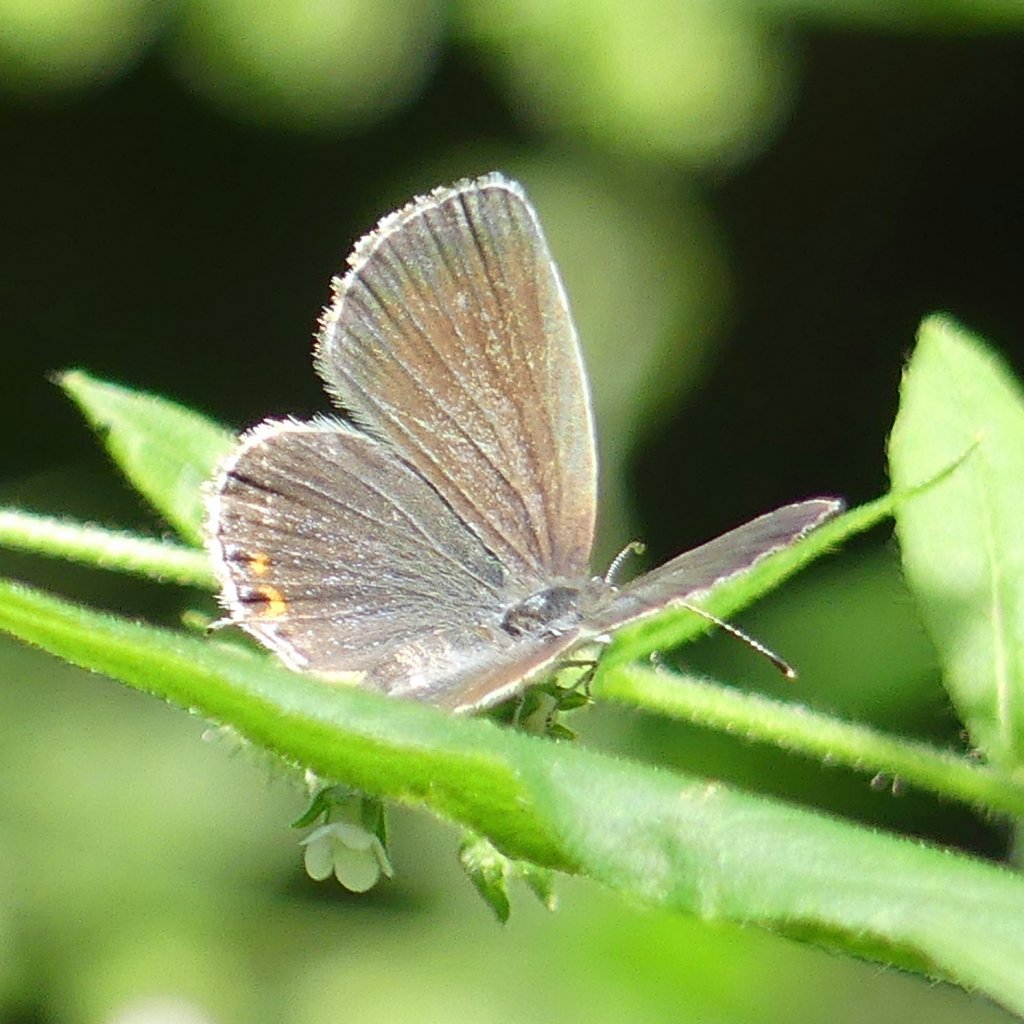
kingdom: Animalia
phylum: Arthropoda
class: Insecta
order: Lepidoptera
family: Lycaenidae
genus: Elkalyce
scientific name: Elkalyce comyntas
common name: Eastern Tailed-Blue
